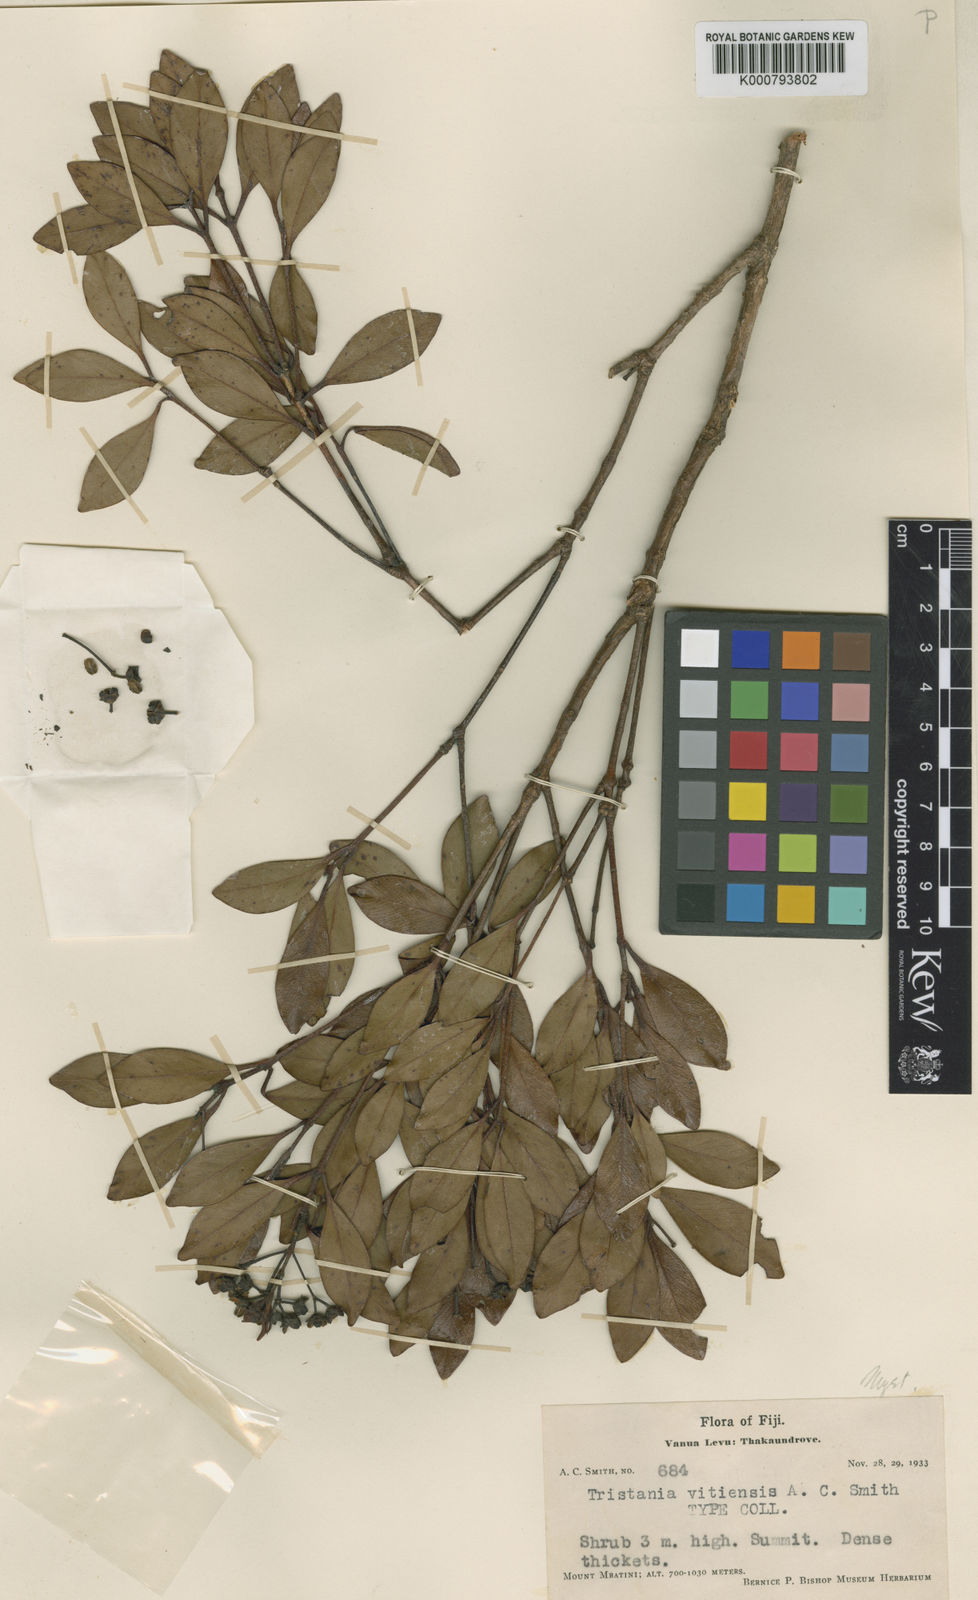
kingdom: Plantae
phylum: Tracheophyta
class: Magnoliopsida
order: Myrtales
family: Myrtaceae
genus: Metrosideros
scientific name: Metrosideros vitiensis
